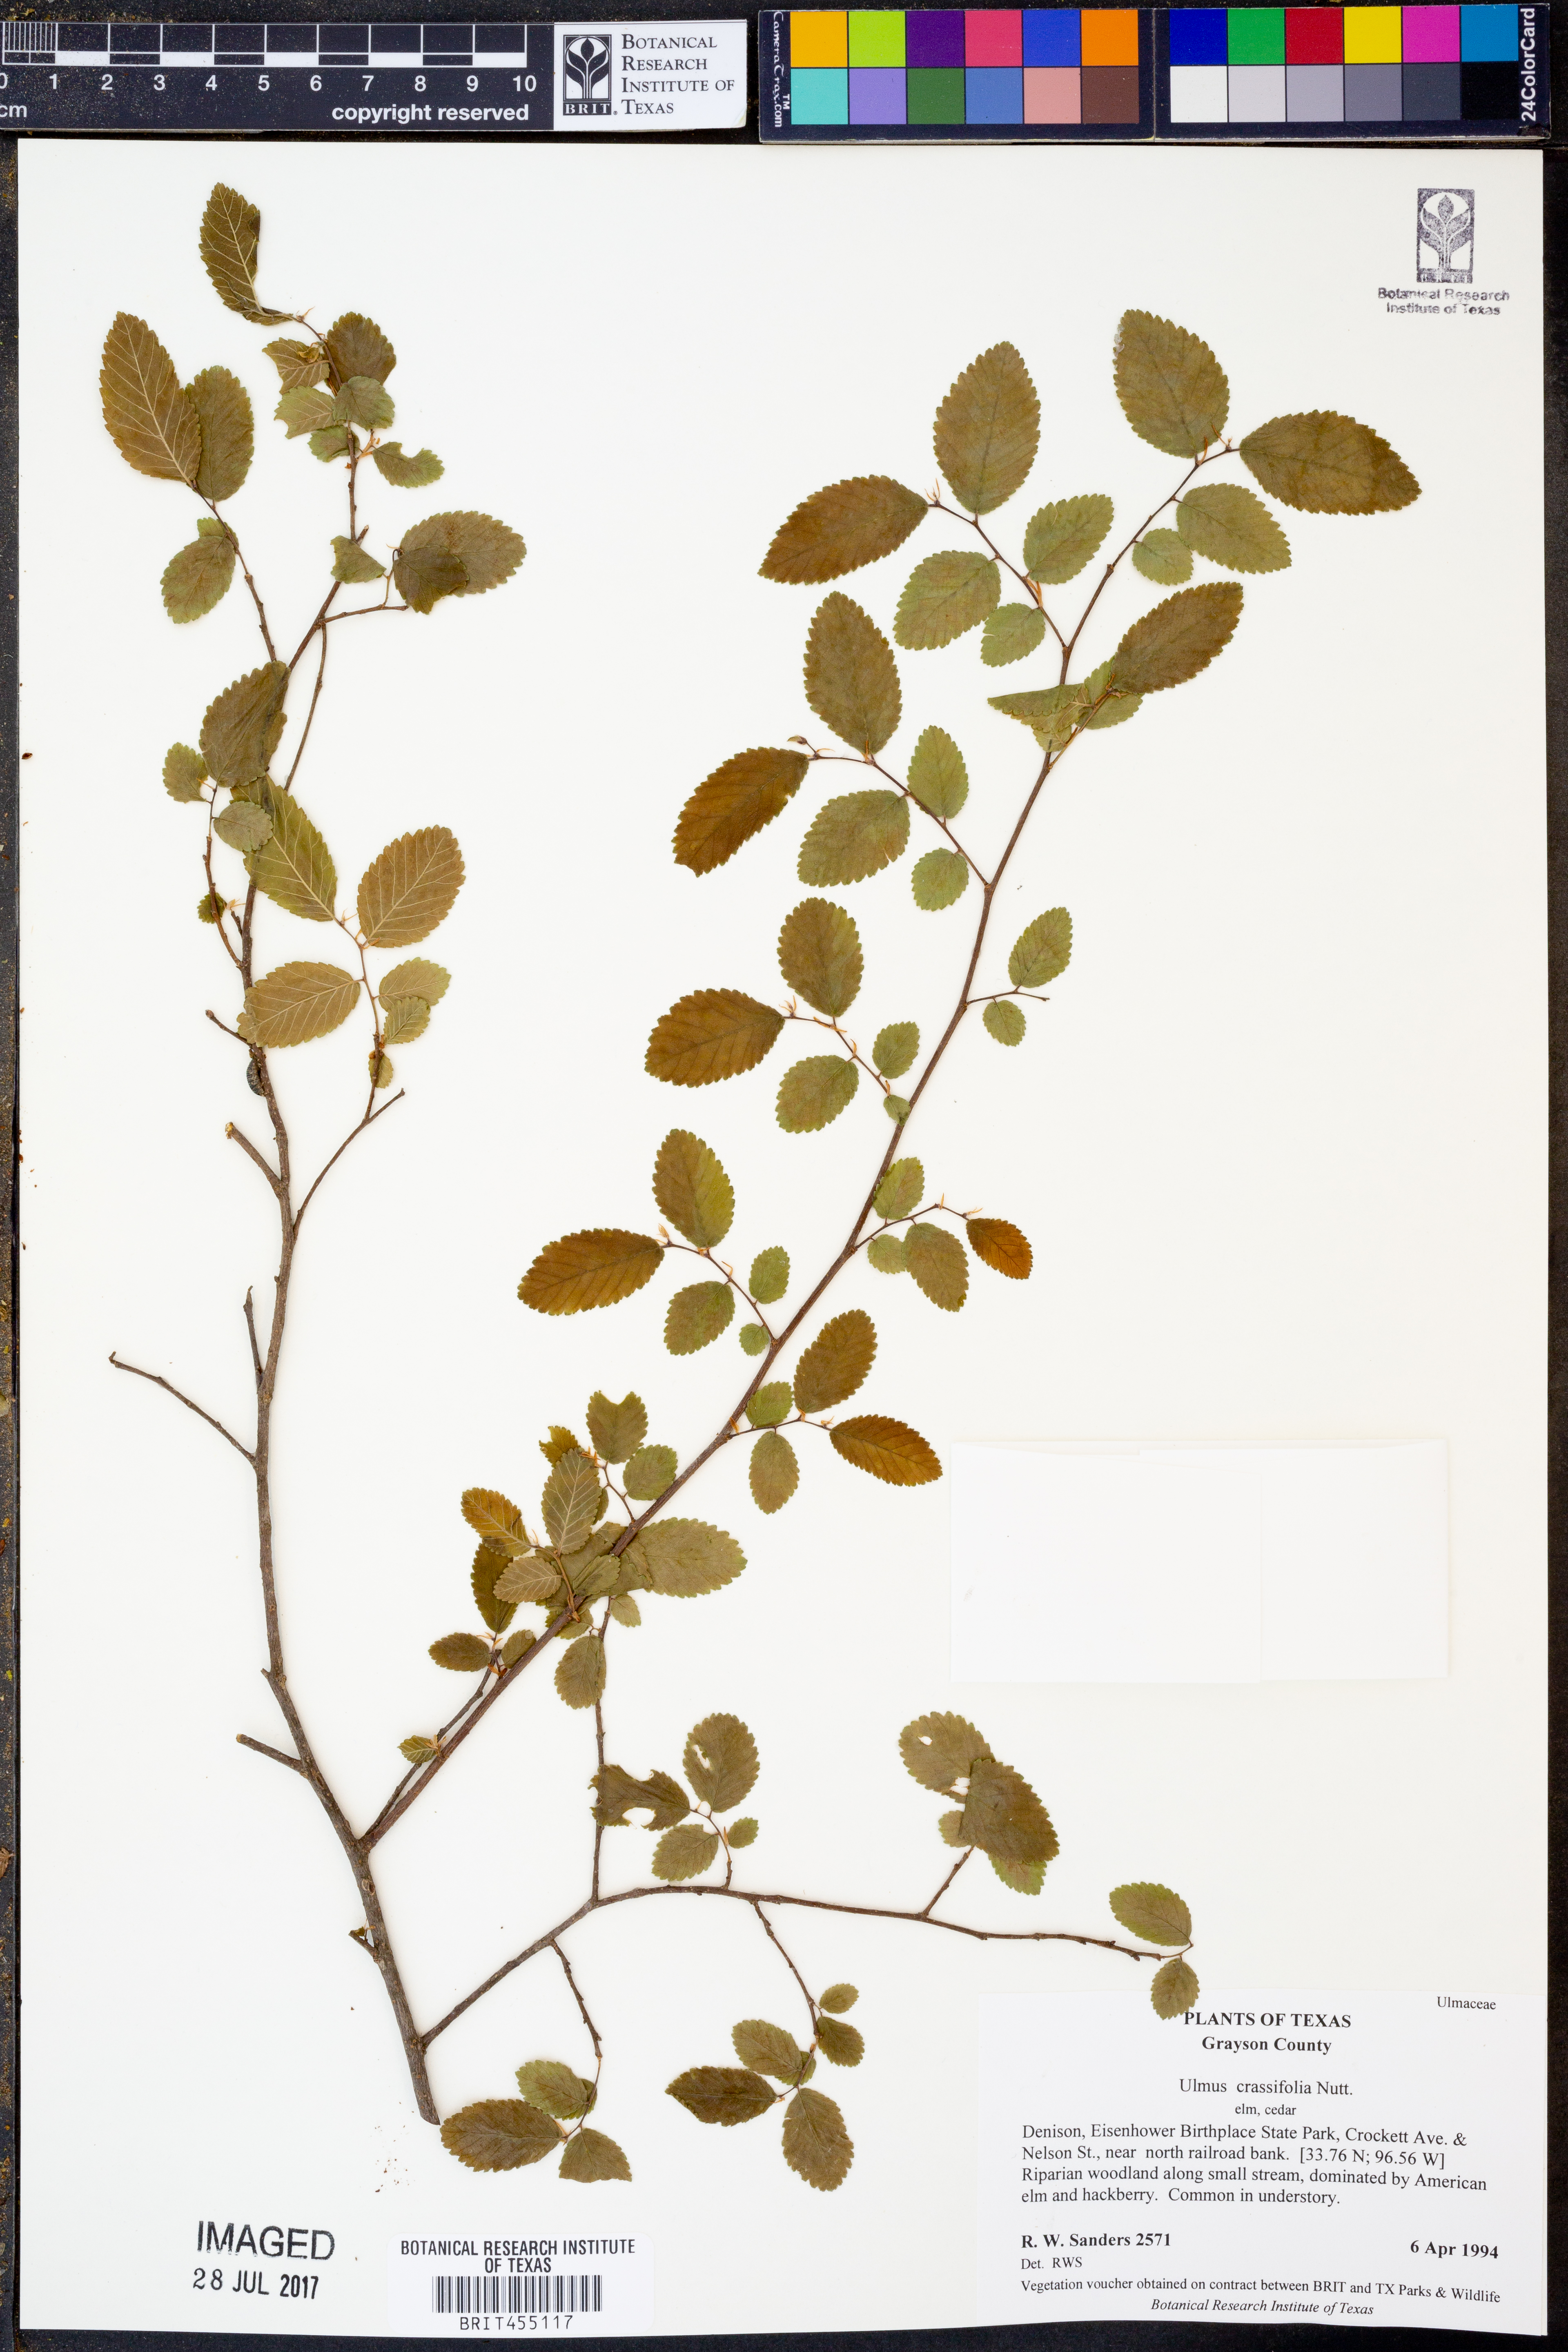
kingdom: Plantae
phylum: Tracheophyta
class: Magnoliopsida
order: Rosales
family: Ulmaceae
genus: Ulmus
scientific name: Ulmus crassifolia
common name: Basket elm
